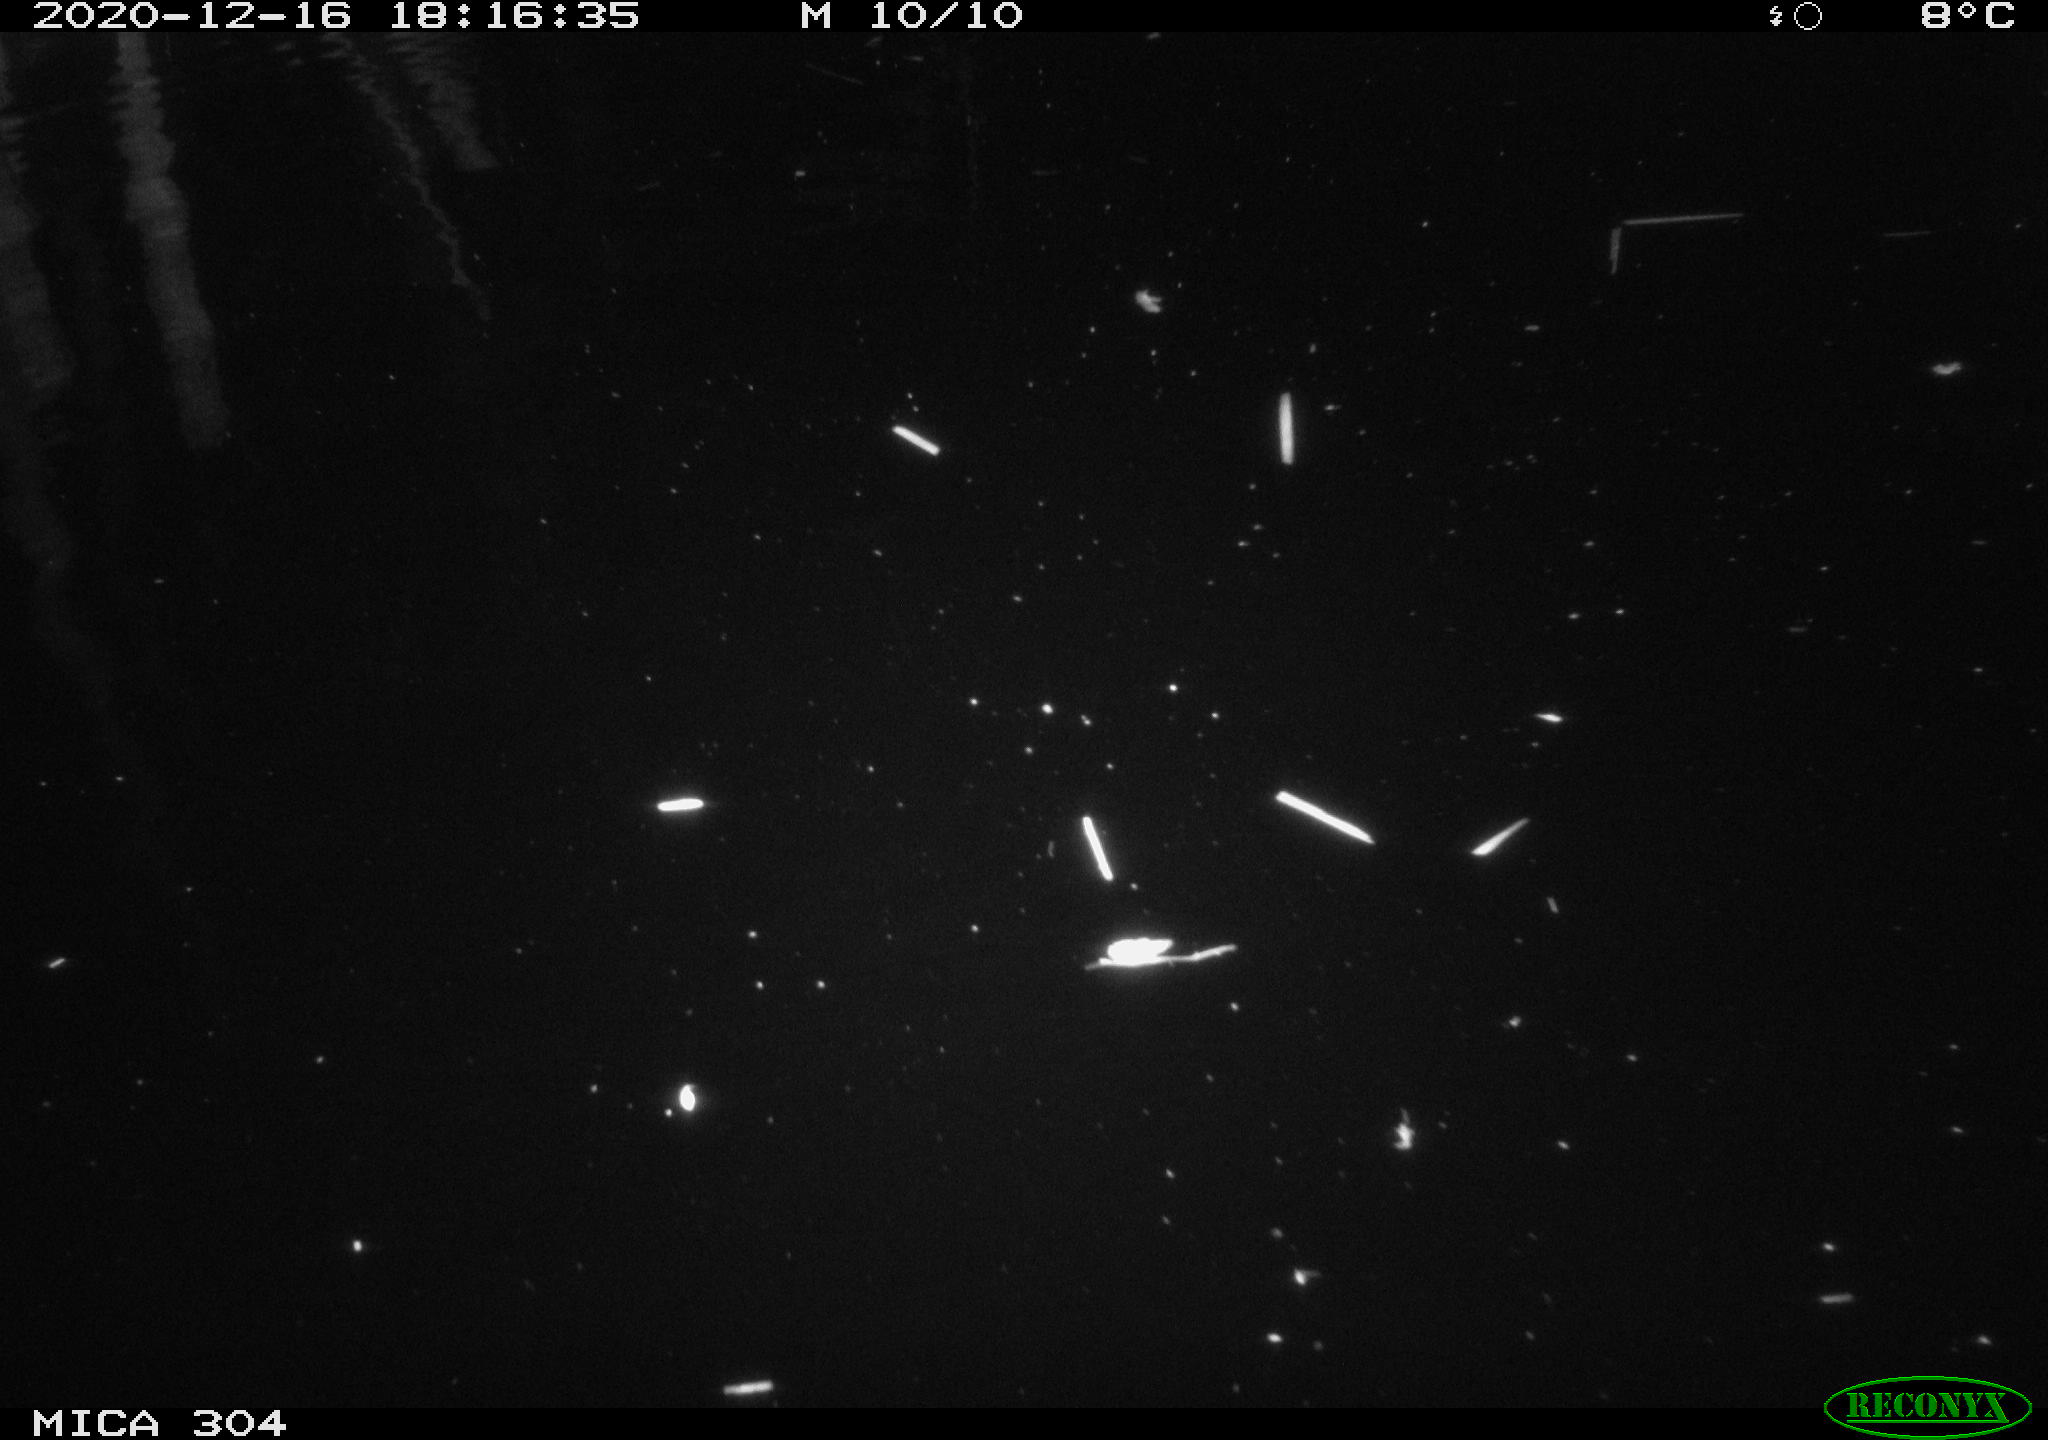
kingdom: Animalia
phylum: Chordata
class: Mammalia
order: Rodentia
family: Cricetidae
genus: Ondatra
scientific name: Ondatra zibethicus
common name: Muskrat
